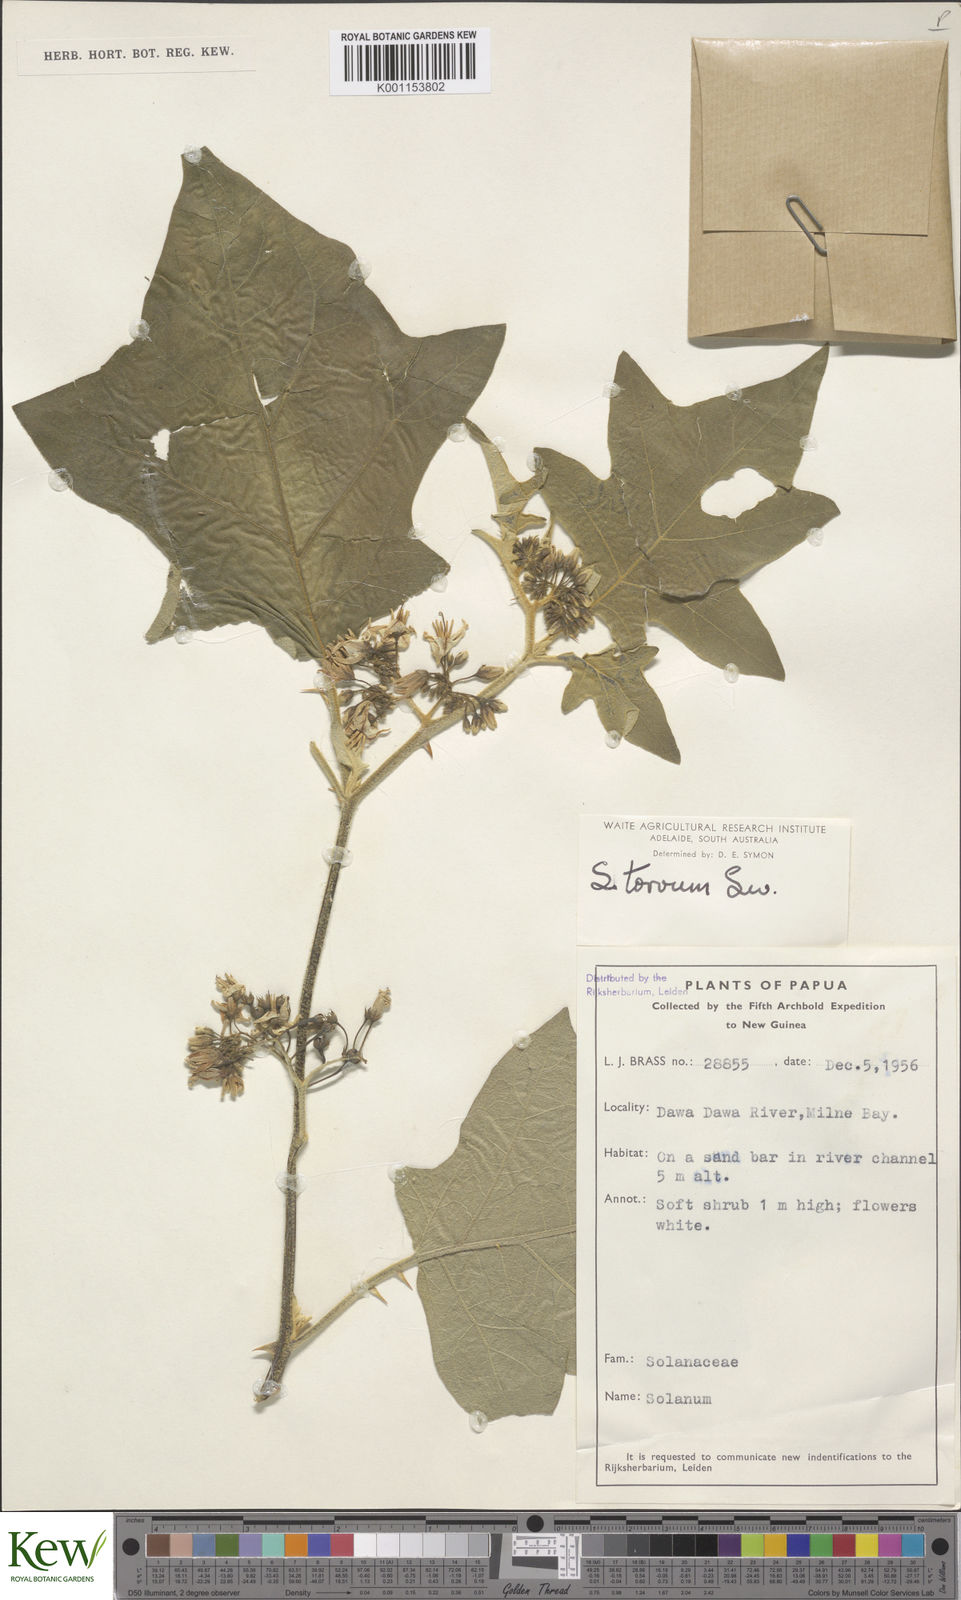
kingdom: Plantae
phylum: Tracheophyta
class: Magnoliopsida
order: Solanales
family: Solanaceae
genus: Solanum
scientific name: Solanum torvum
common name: Turkey berry
